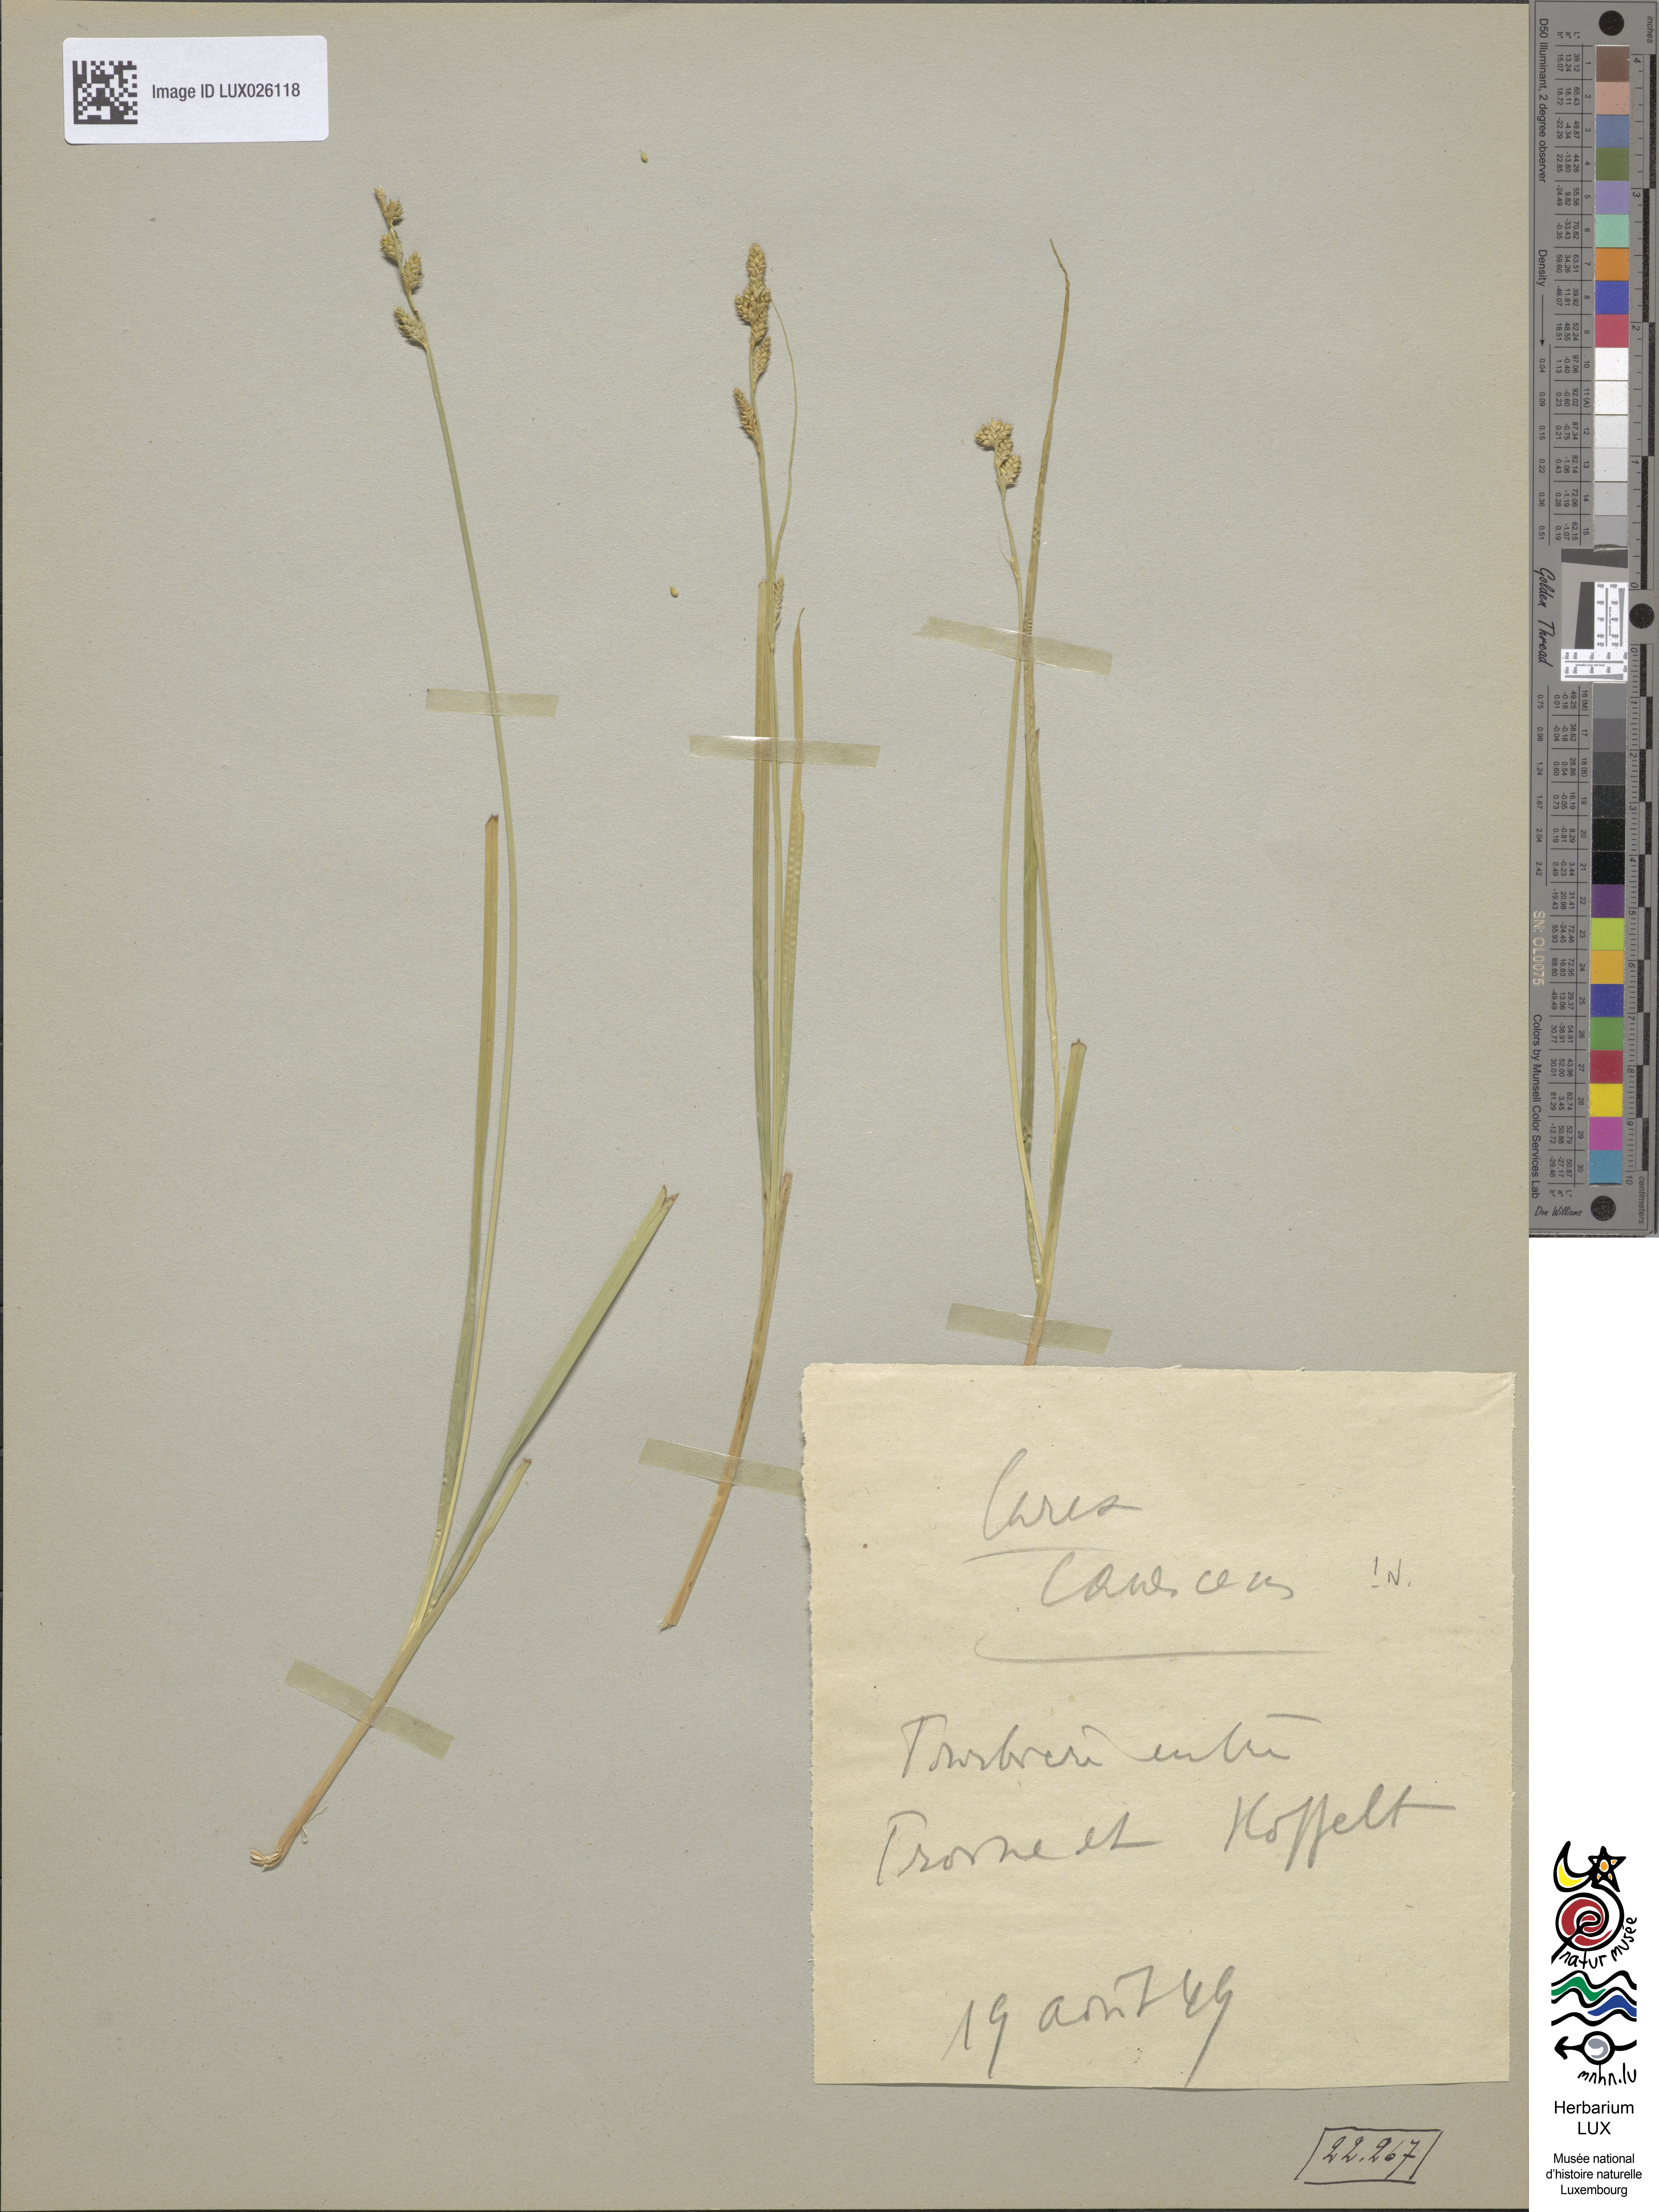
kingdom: Plantae
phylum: Tracheophyta
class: Liliopsida
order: Poales
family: Cyperaceae
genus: Carex
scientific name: Carex canescens
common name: White sedge
